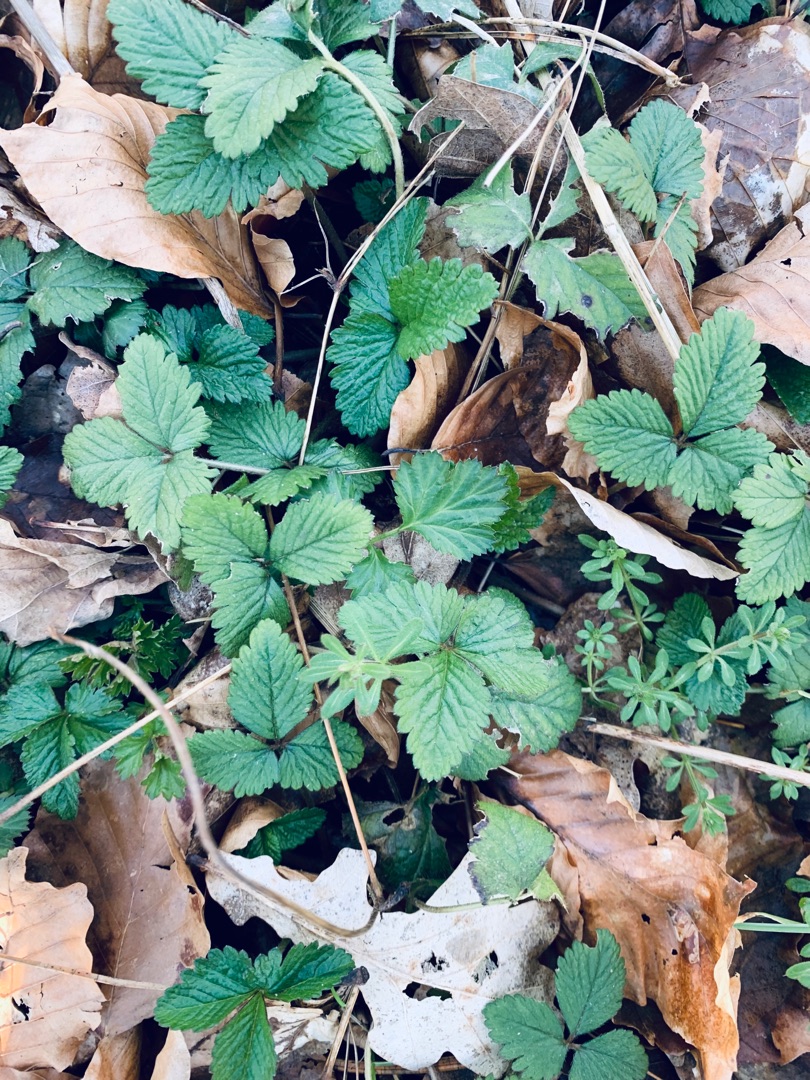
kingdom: Plantae
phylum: Tracheophyta
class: Magnoliopsida
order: Rosales
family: Rosaceae
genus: Fragaria
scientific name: Fragaria vesca
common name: Skov-jordbær
